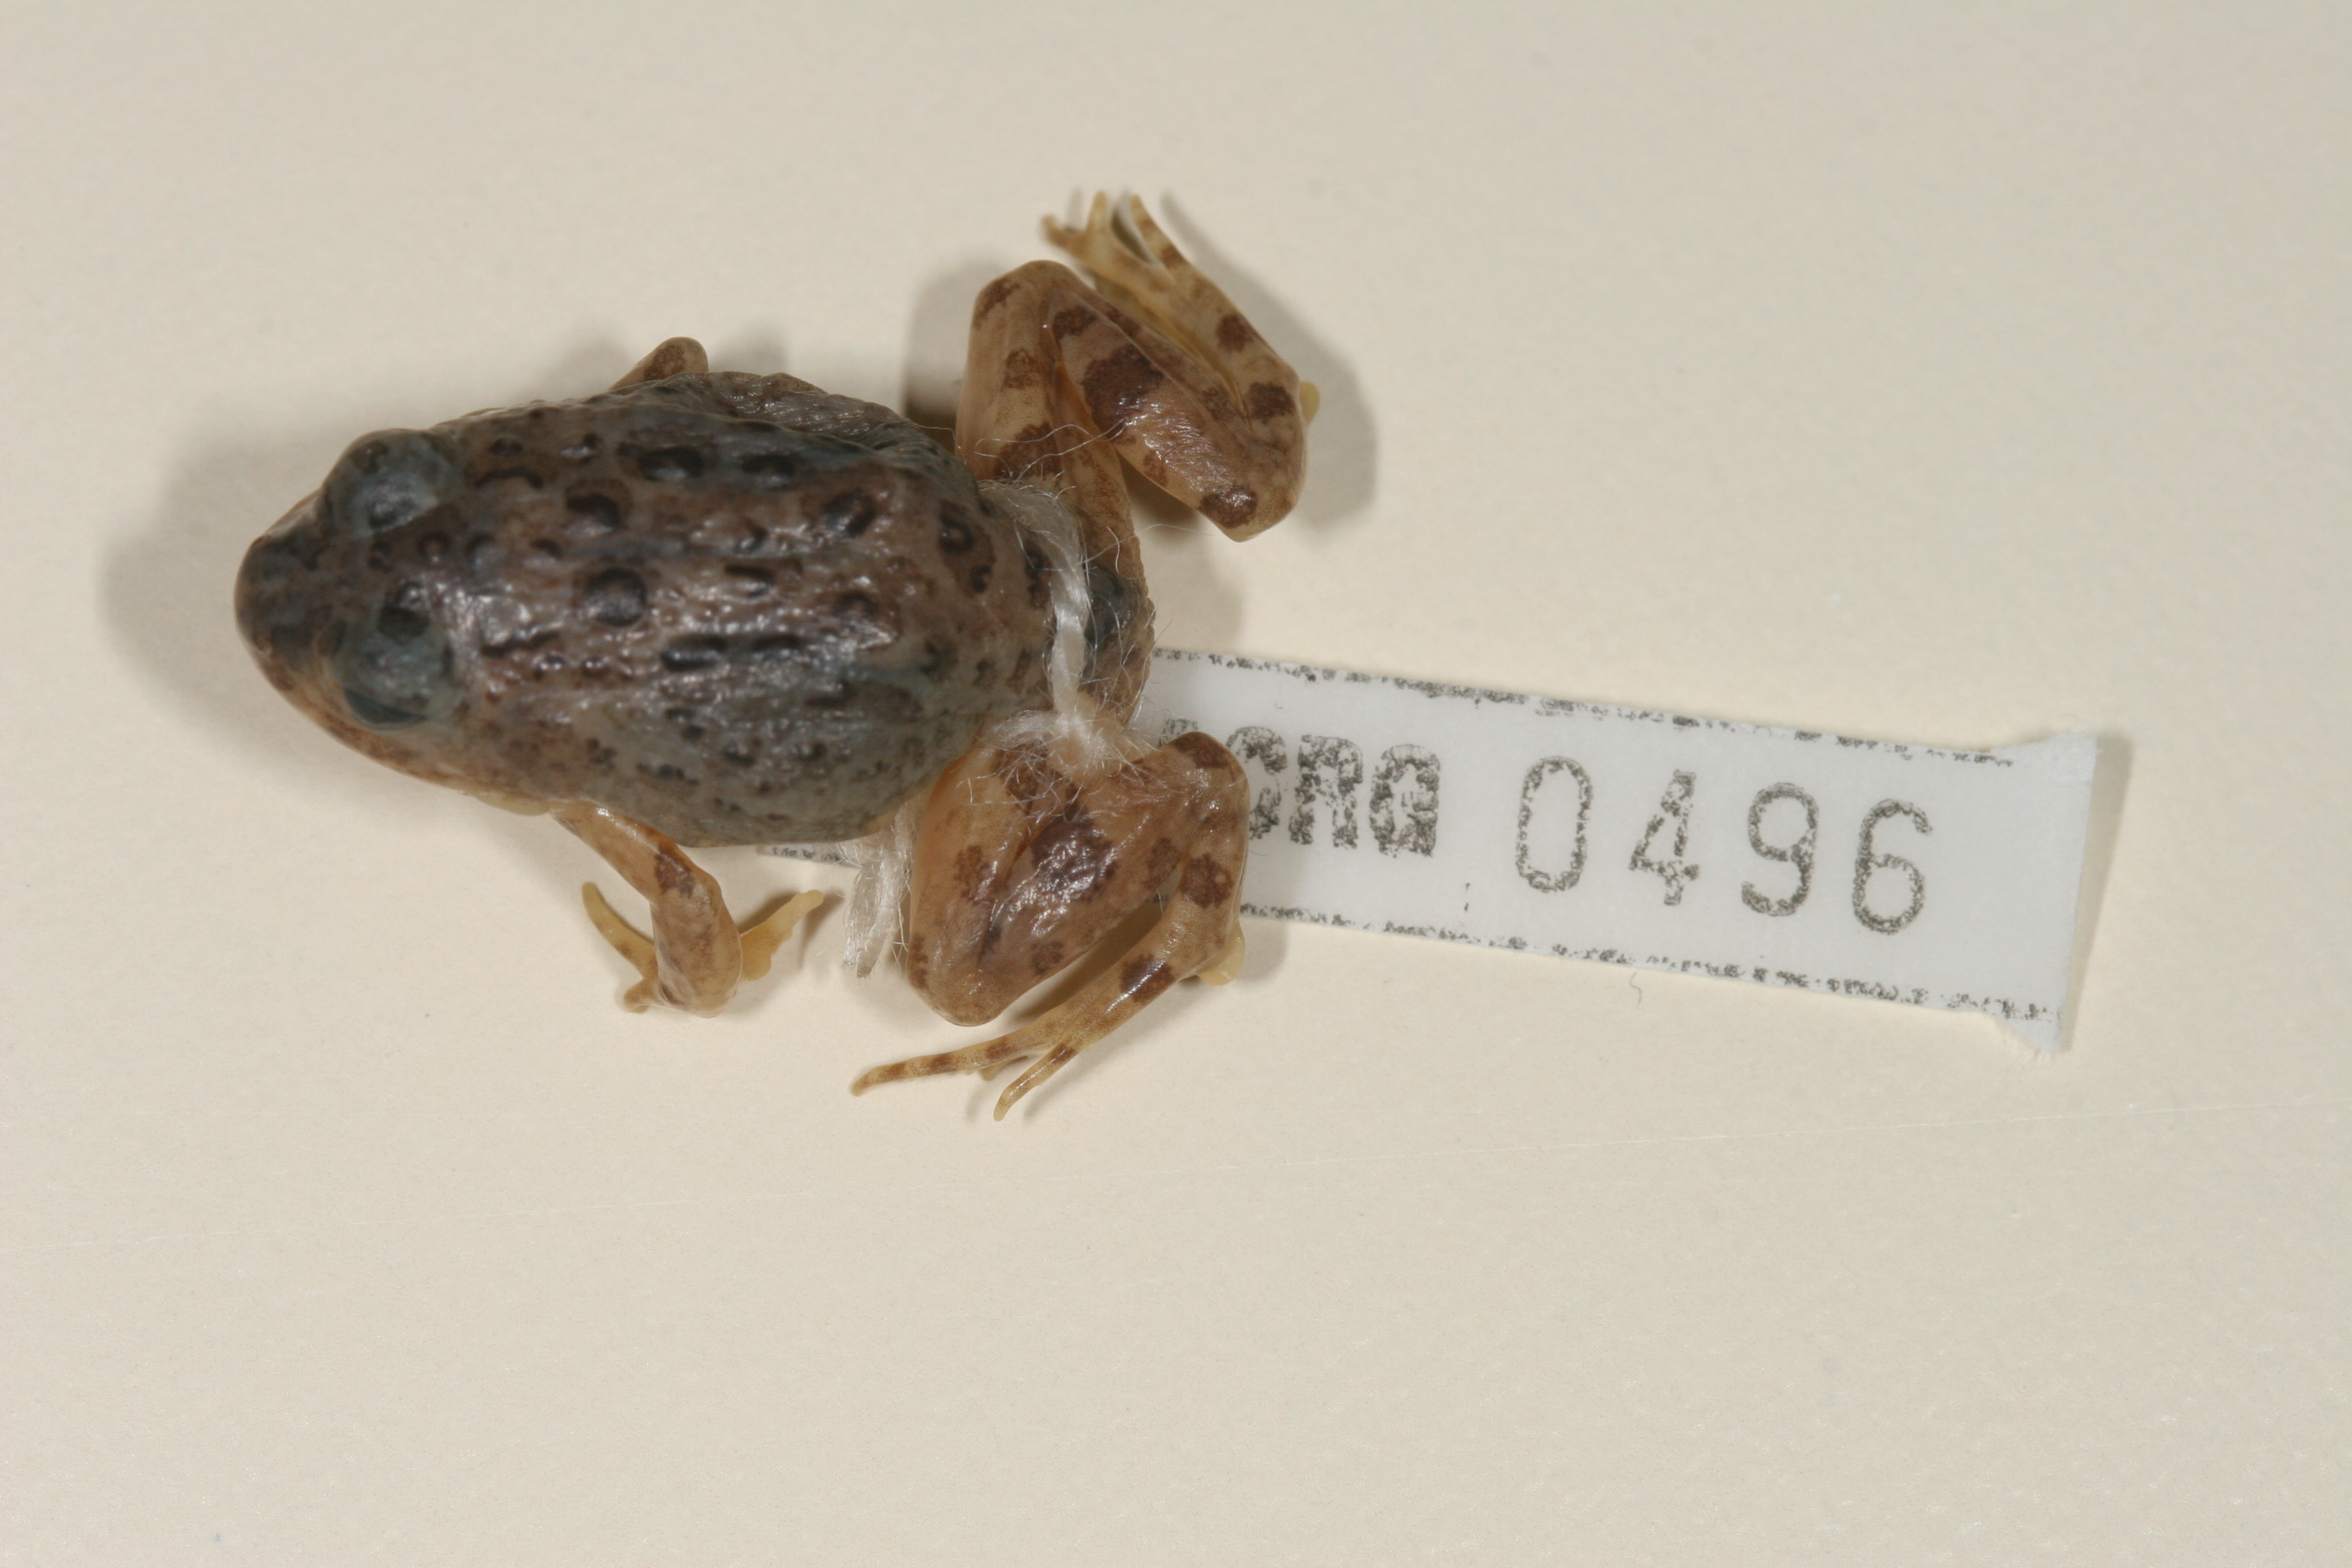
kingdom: Animalia
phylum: Chordata
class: Amphibia
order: Anura
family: Bufonidae
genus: Poyntonophrynus
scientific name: Poyntonophrynus vertebralis
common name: Southern pygmy toad
